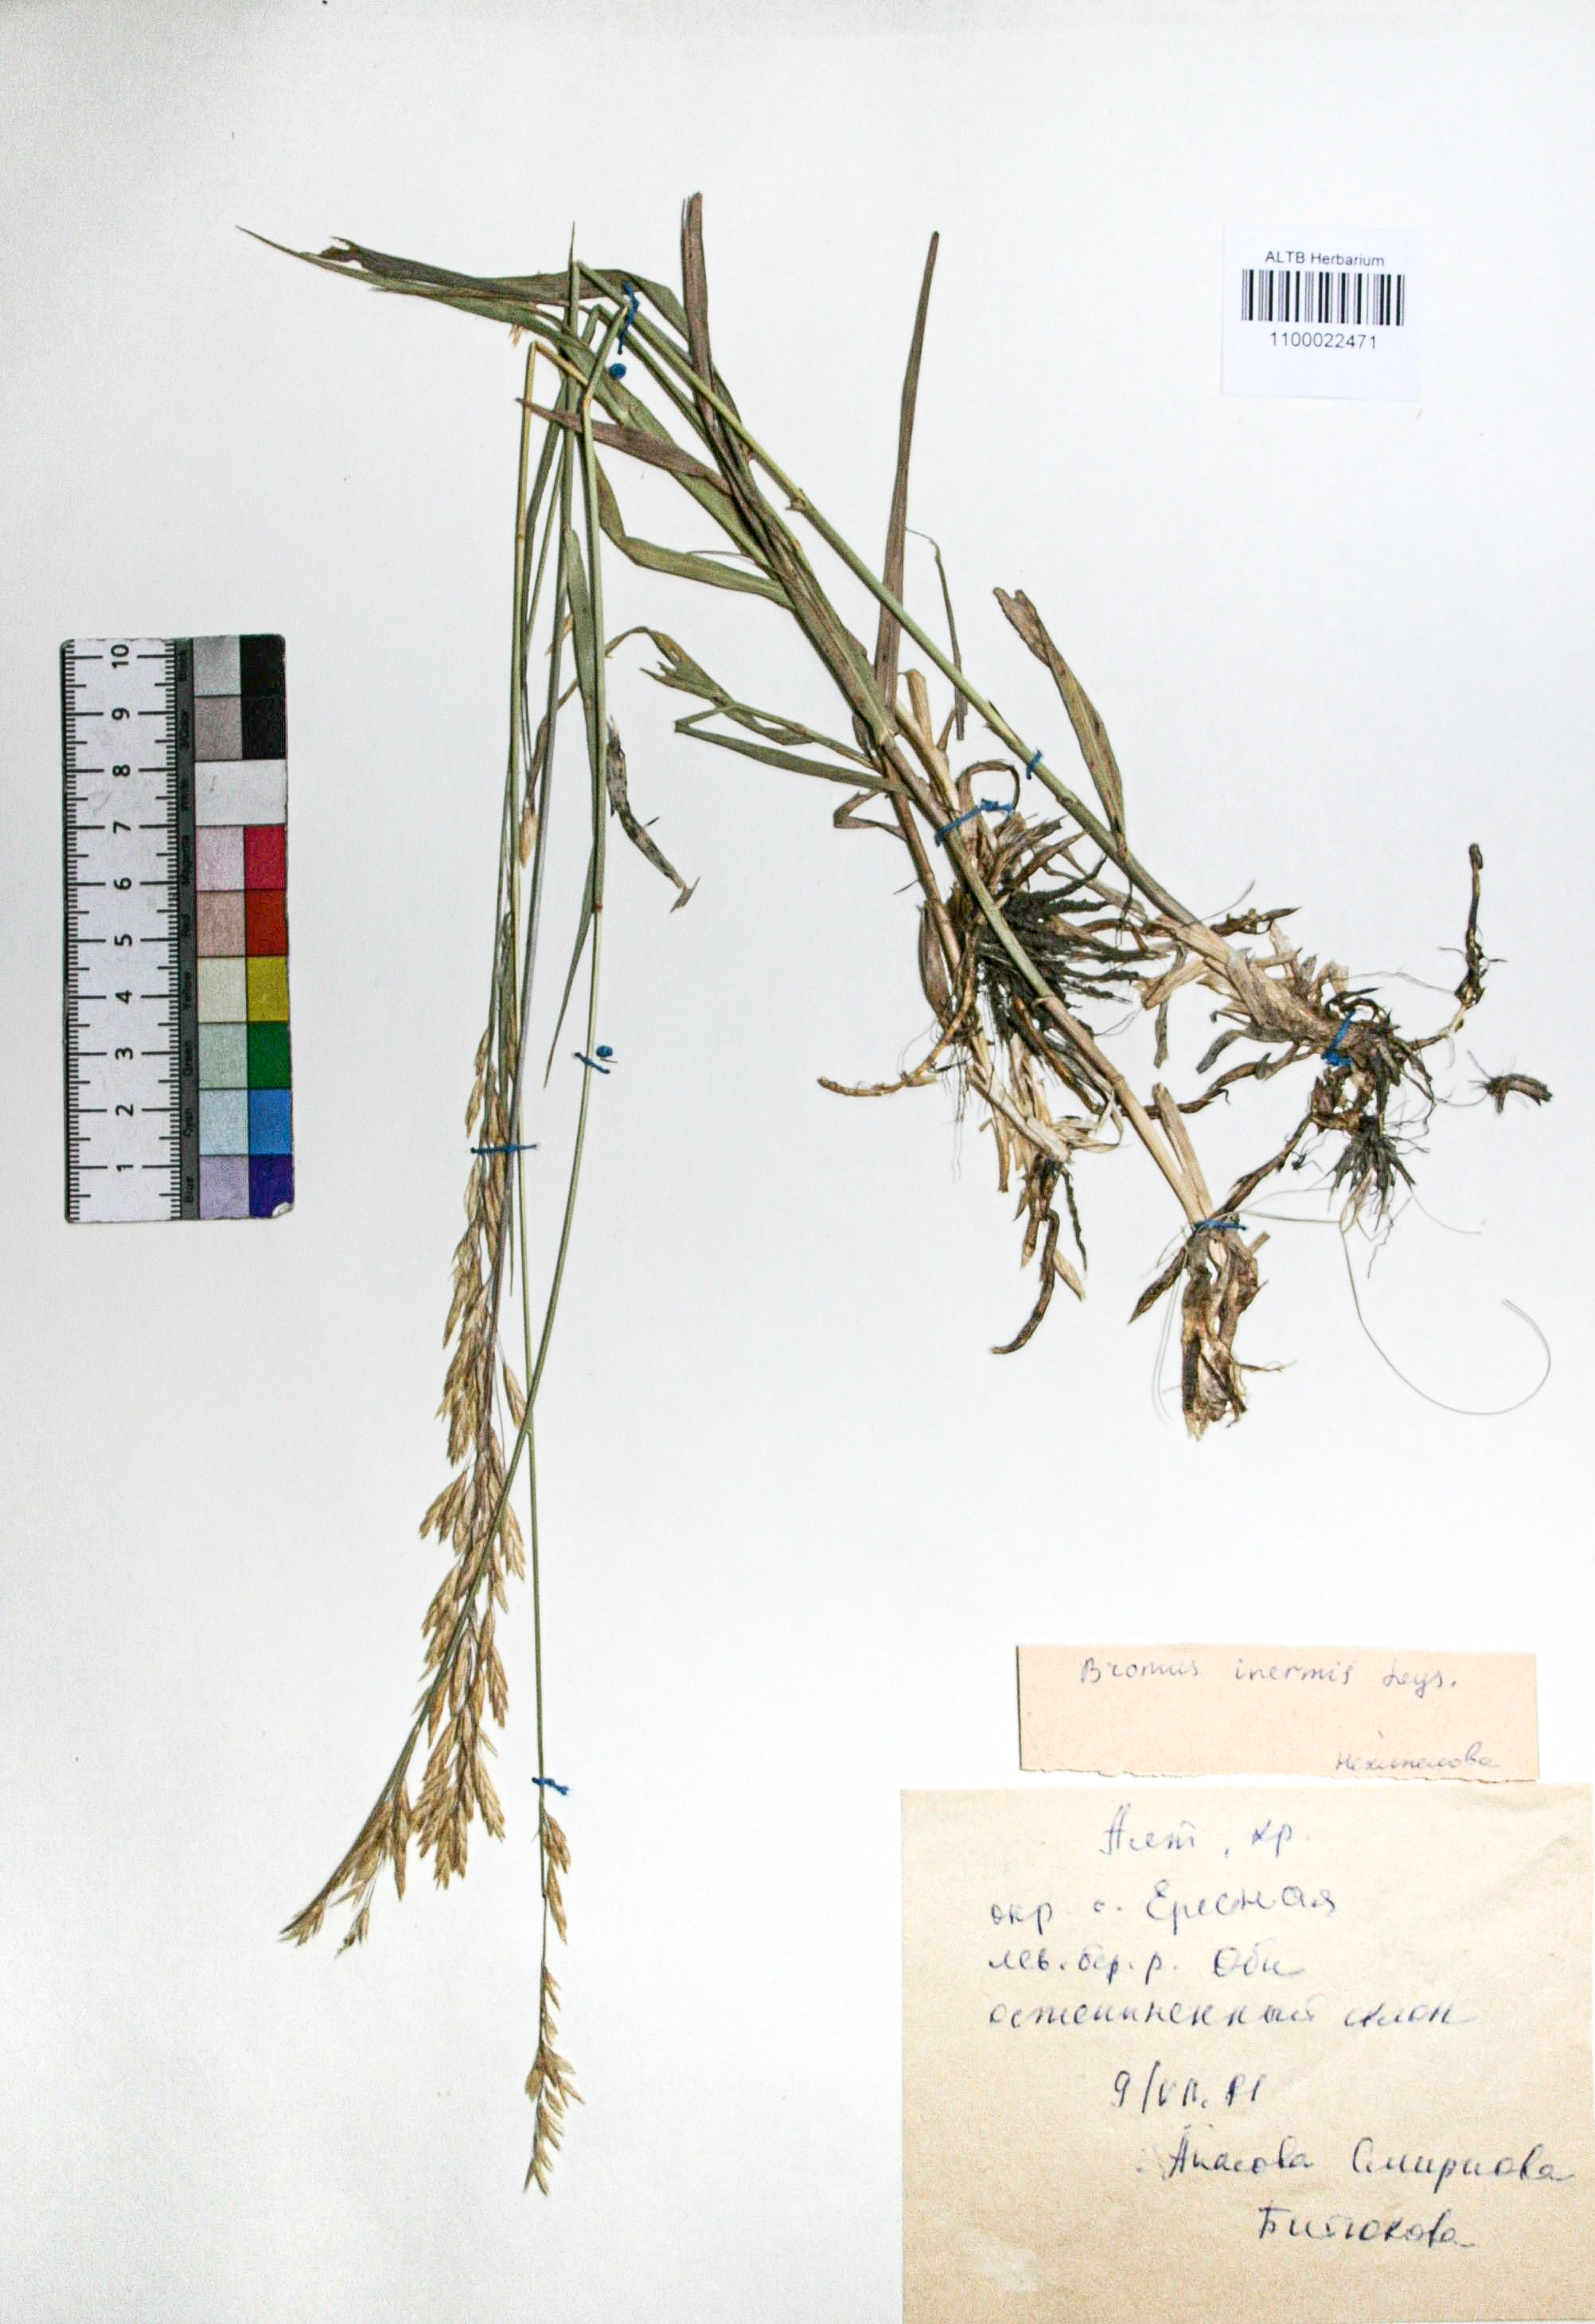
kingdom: Plantae
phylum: Tracheophyta
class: Liliopsida
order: Poales
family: Poaceae
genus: Bromus
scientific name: Bromus inermis
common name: Smooth brome
